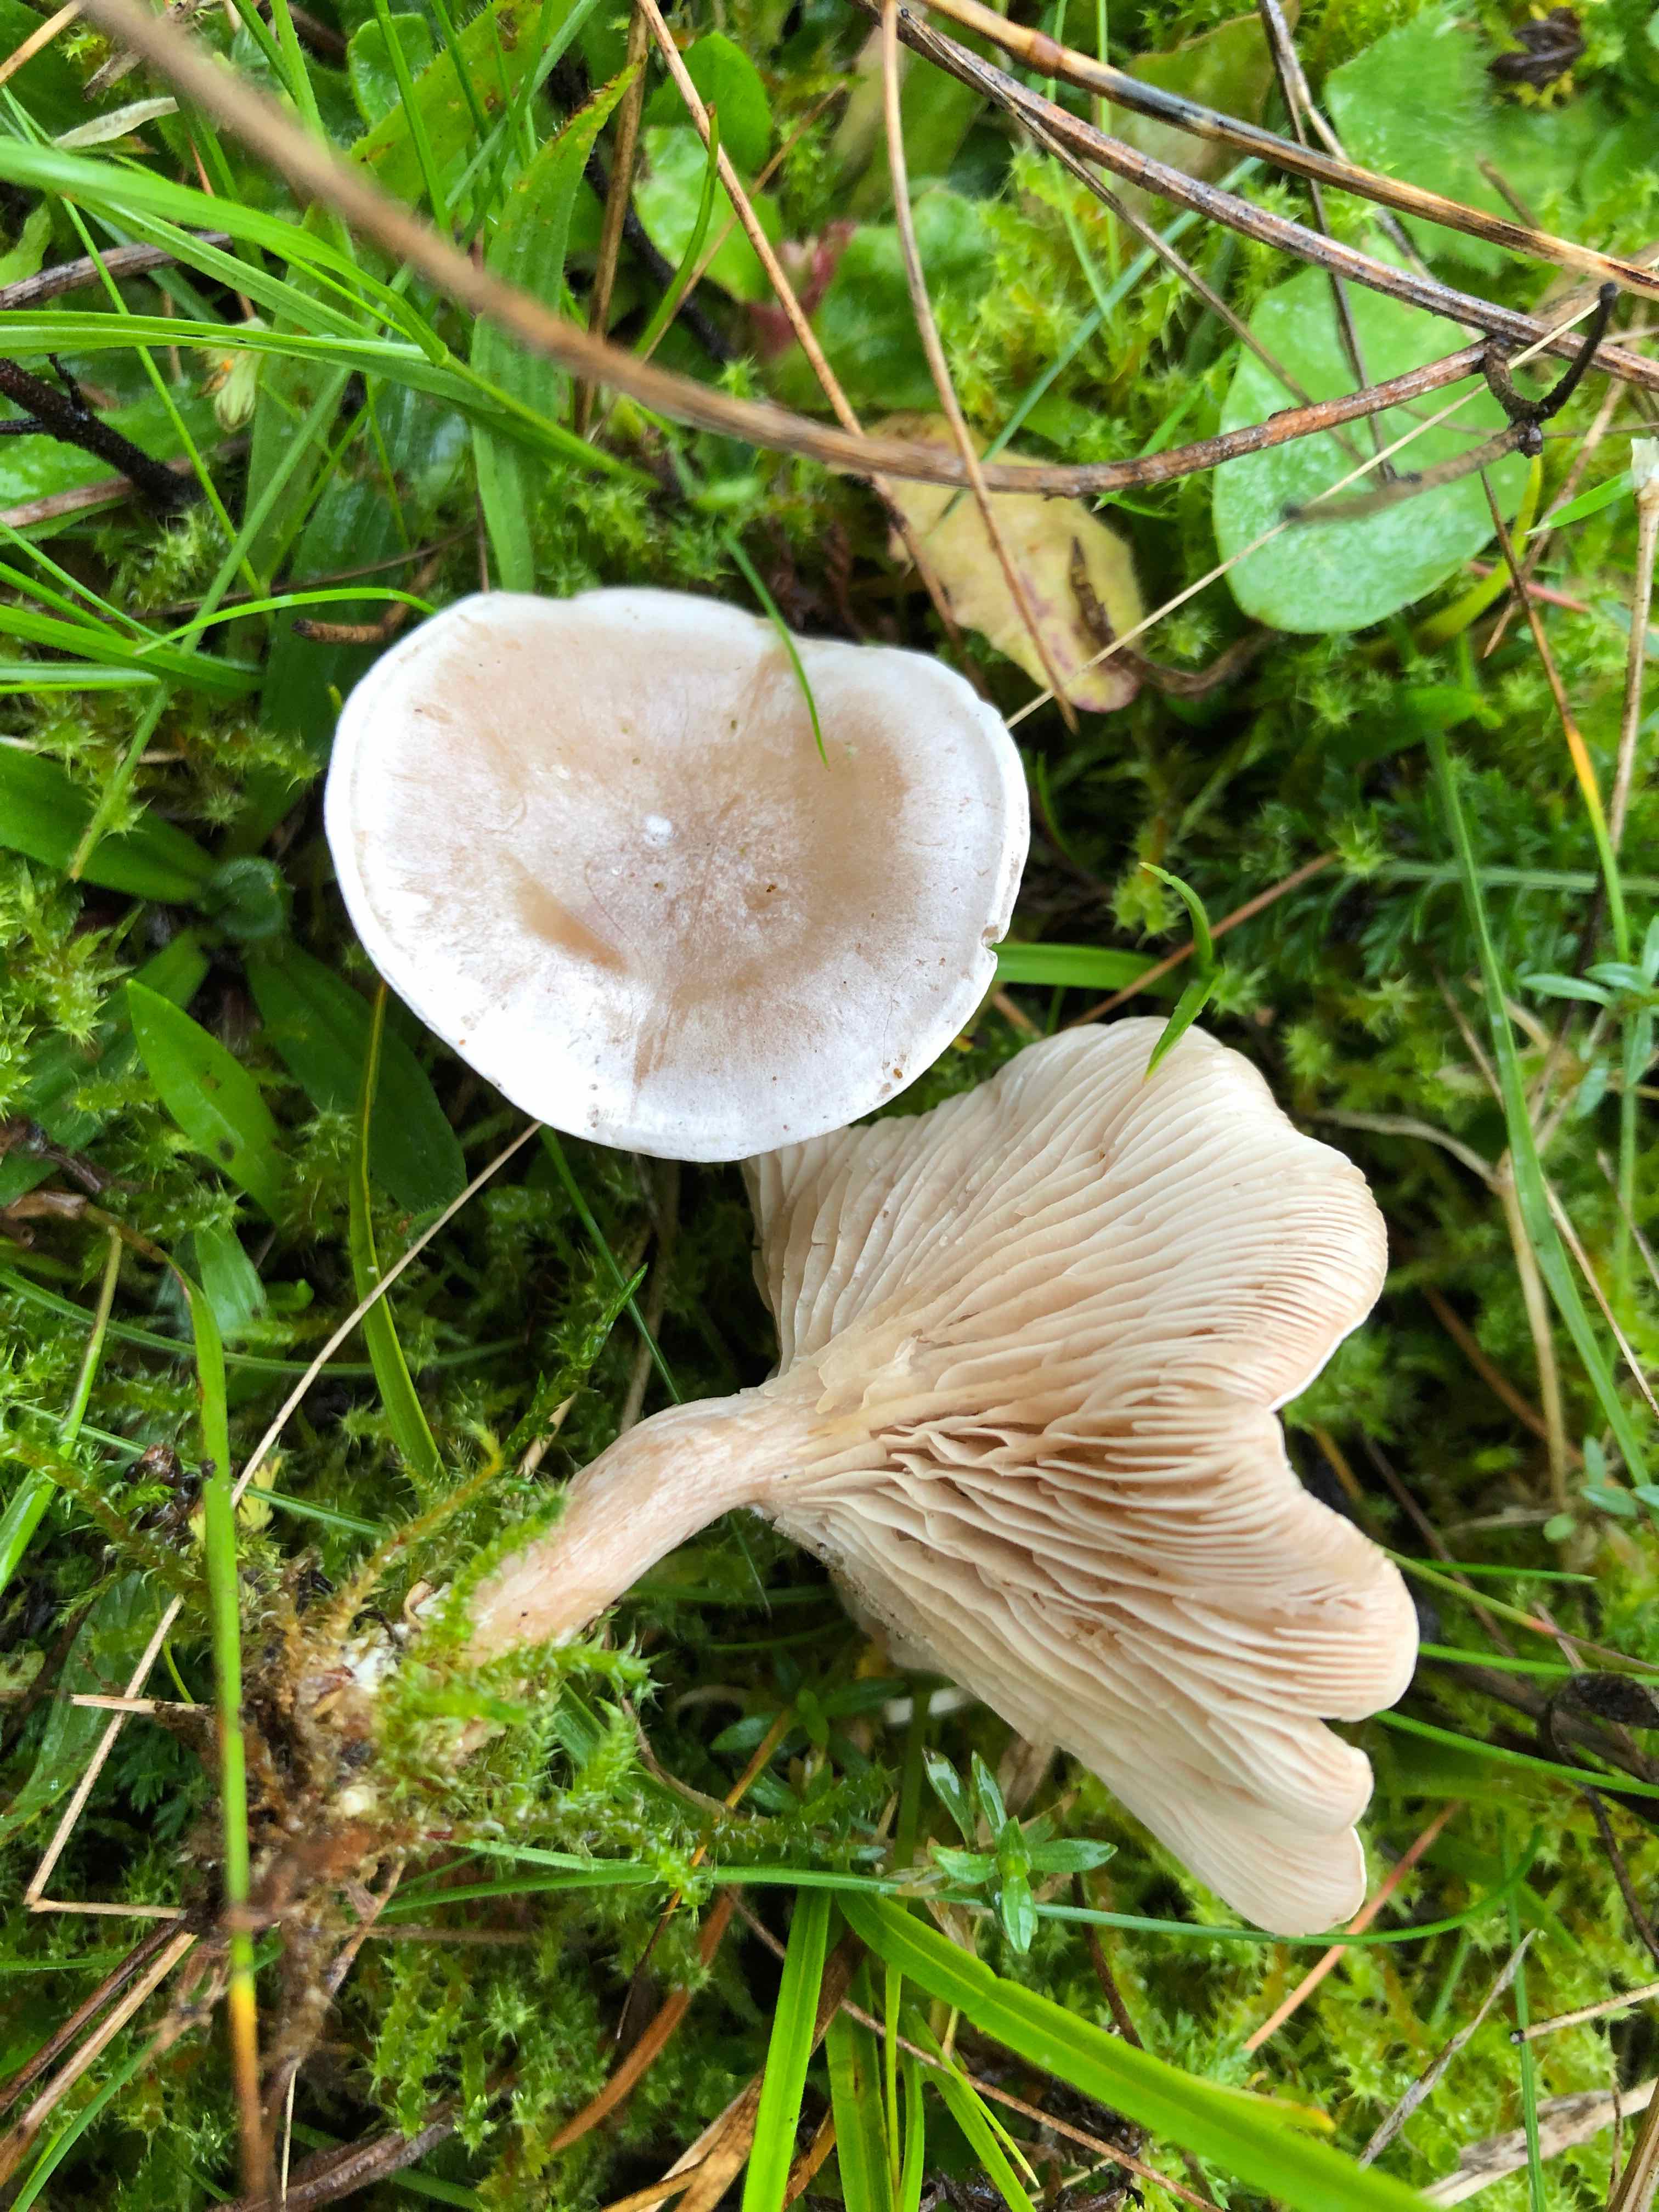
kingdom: Fungi
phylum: Basidiomycota
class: Agaricomycetes
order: Agaricales
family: Tricholomataceae
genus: Clitocybe
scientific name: Clitocybe rivulosa
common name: eng-tragthat
